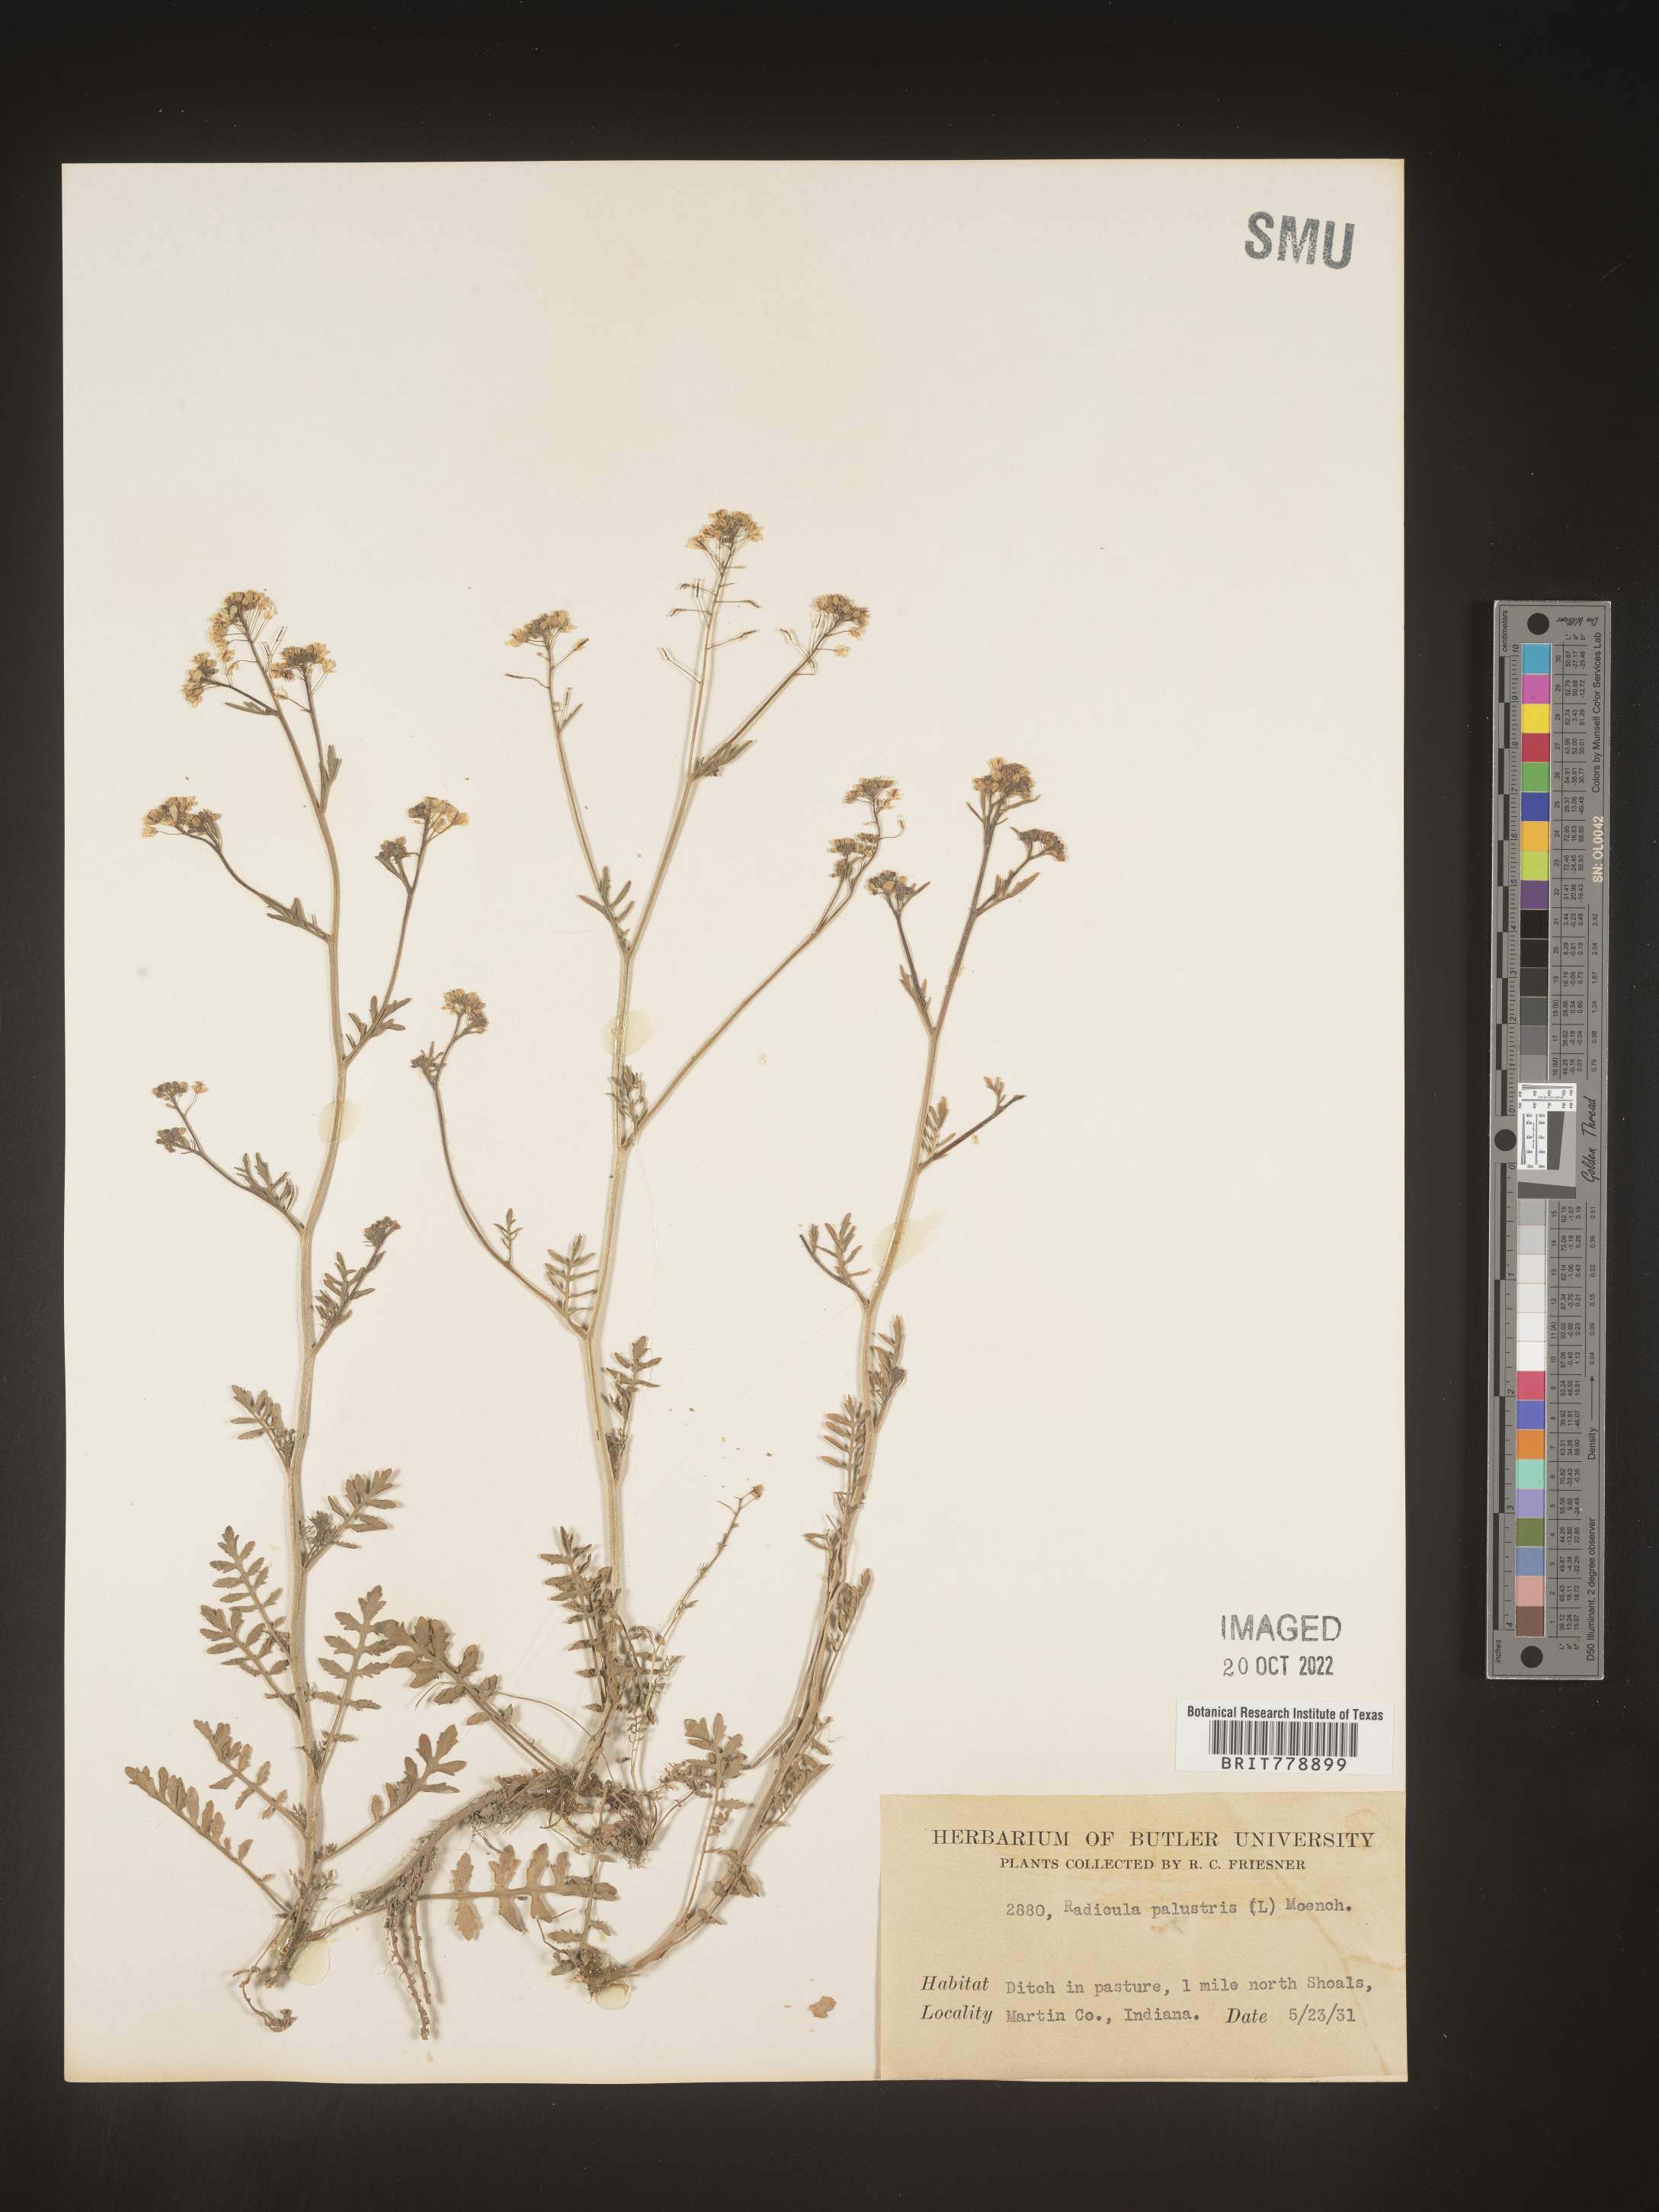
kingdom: Plantae
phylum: Tracheophyta
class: Magnoliopsida
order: Brassicales
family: Brassicaceae
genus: Rorippa
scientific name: Rorippa palustris
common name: Marsh yellow-cress
